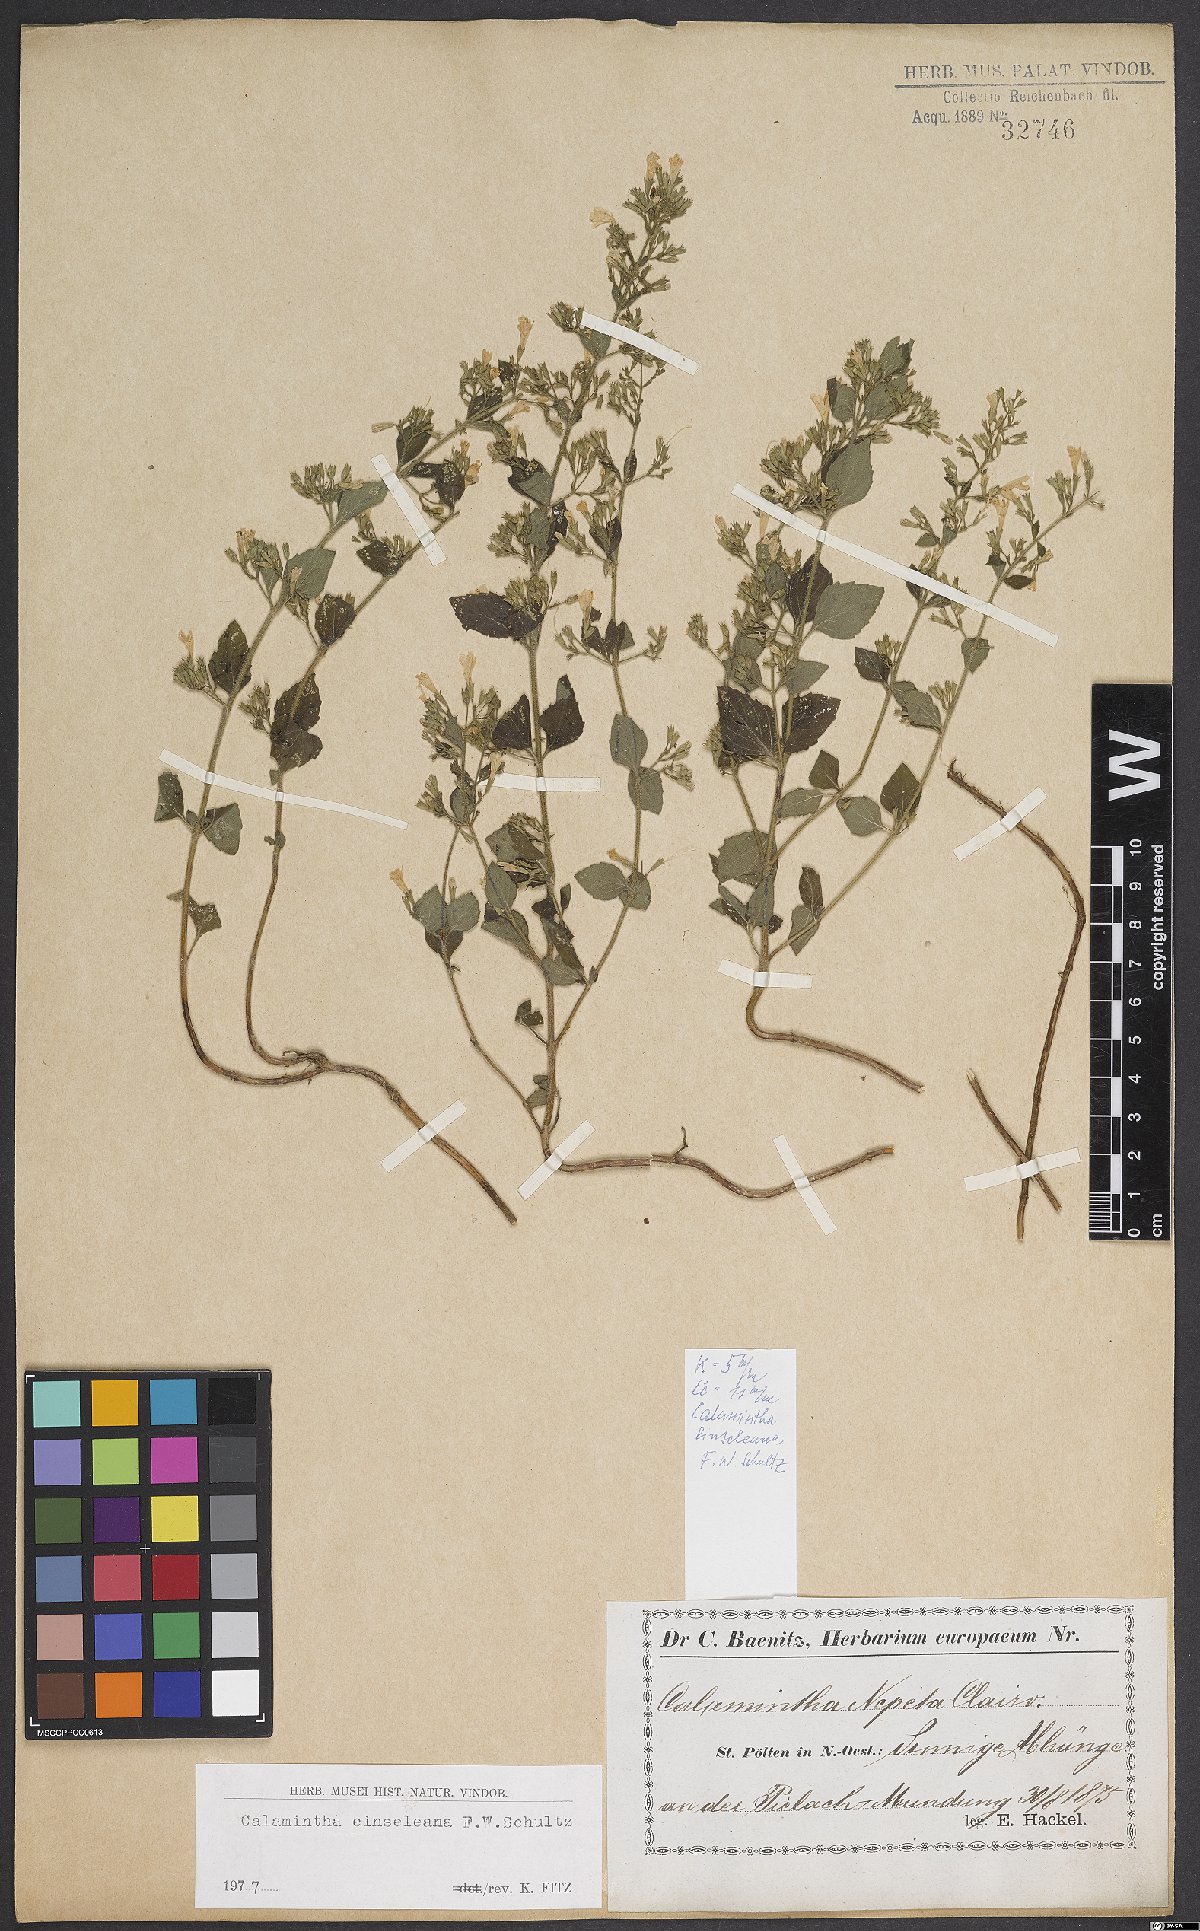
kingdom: Plantae
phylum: Tracheophyta
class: Magnoliopsida
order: Lamiales
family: Lamiaceae
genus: Clinopodium
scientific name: Clinopodium nepeta
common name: Lesser calamint
